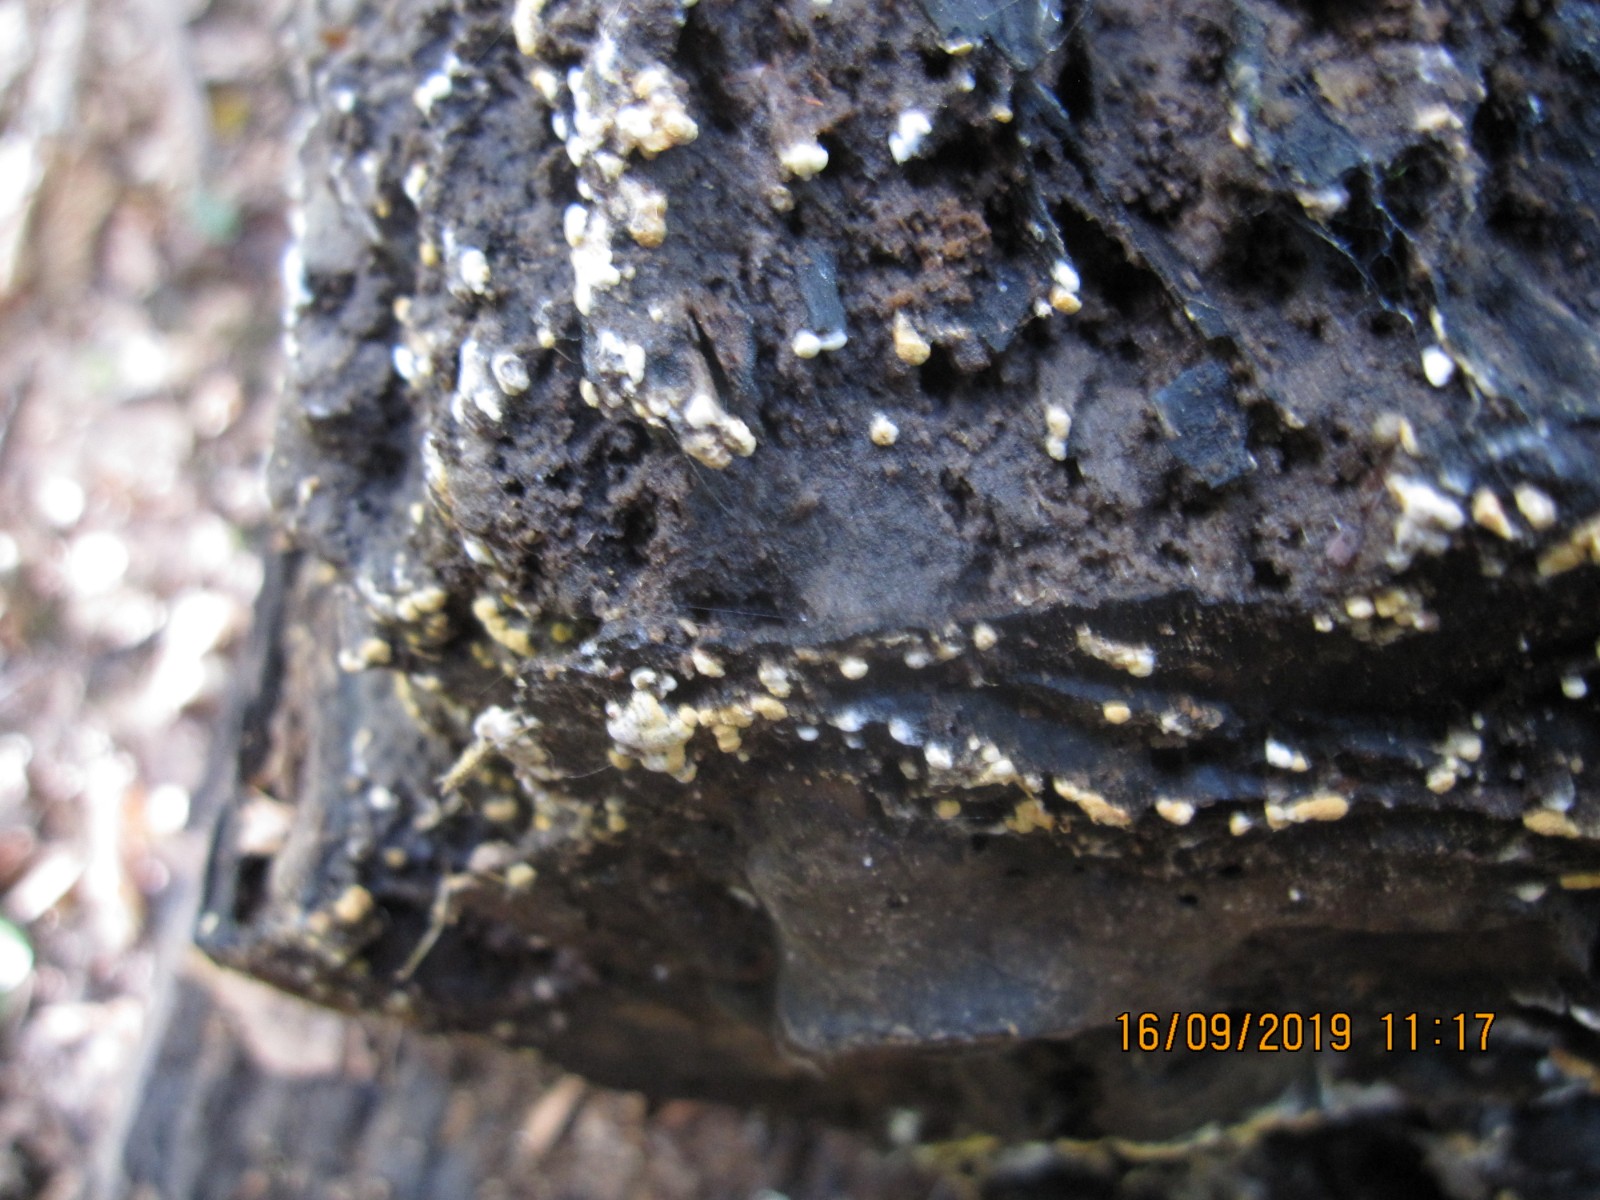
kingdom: Fungi
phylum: Basidiomycota
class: Agaricomycetes
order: Cantharellales
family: Botryobasidiaceae
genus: Botryobasidium
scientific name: Botryobasidium aureum
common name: gylden spindhinde
